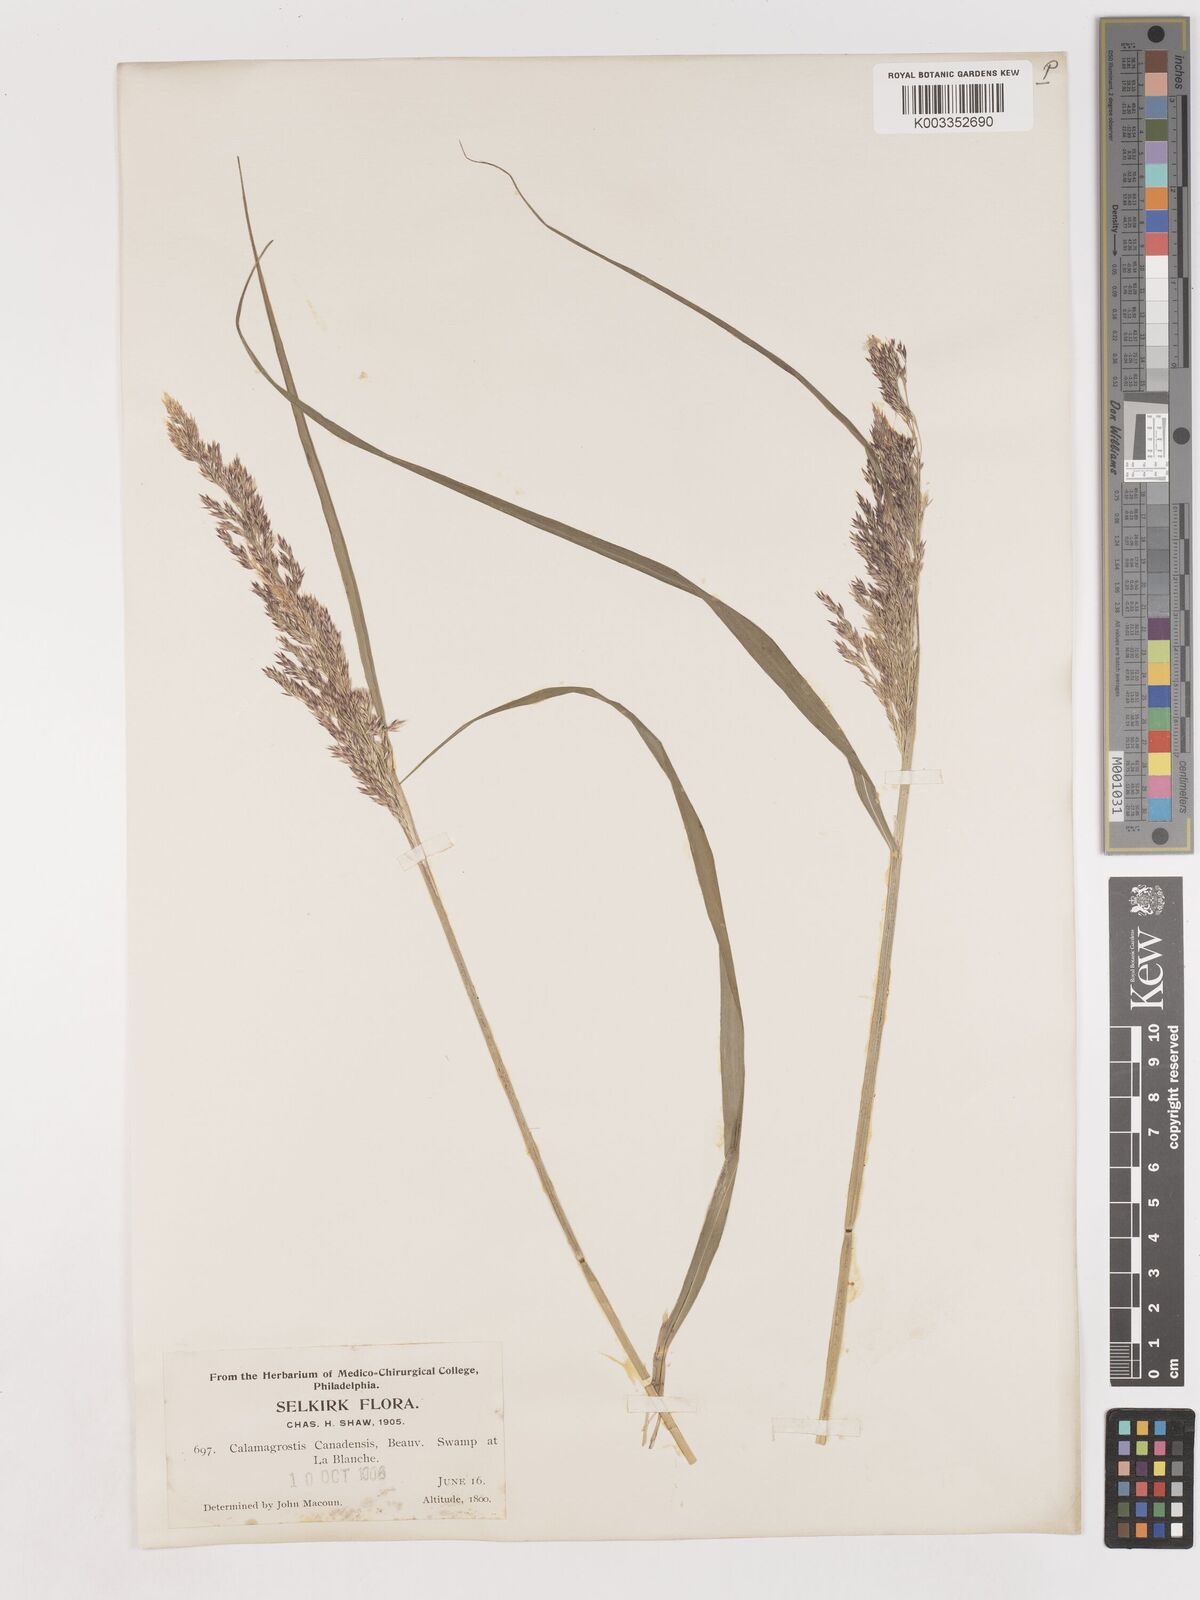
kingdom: Plantae
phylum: Tracheophyta
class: Liliopsida
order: Poales
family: Poaceae
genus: Calamagrostis
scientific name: Calamagrostis canadensis
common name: Canada bluejoint
